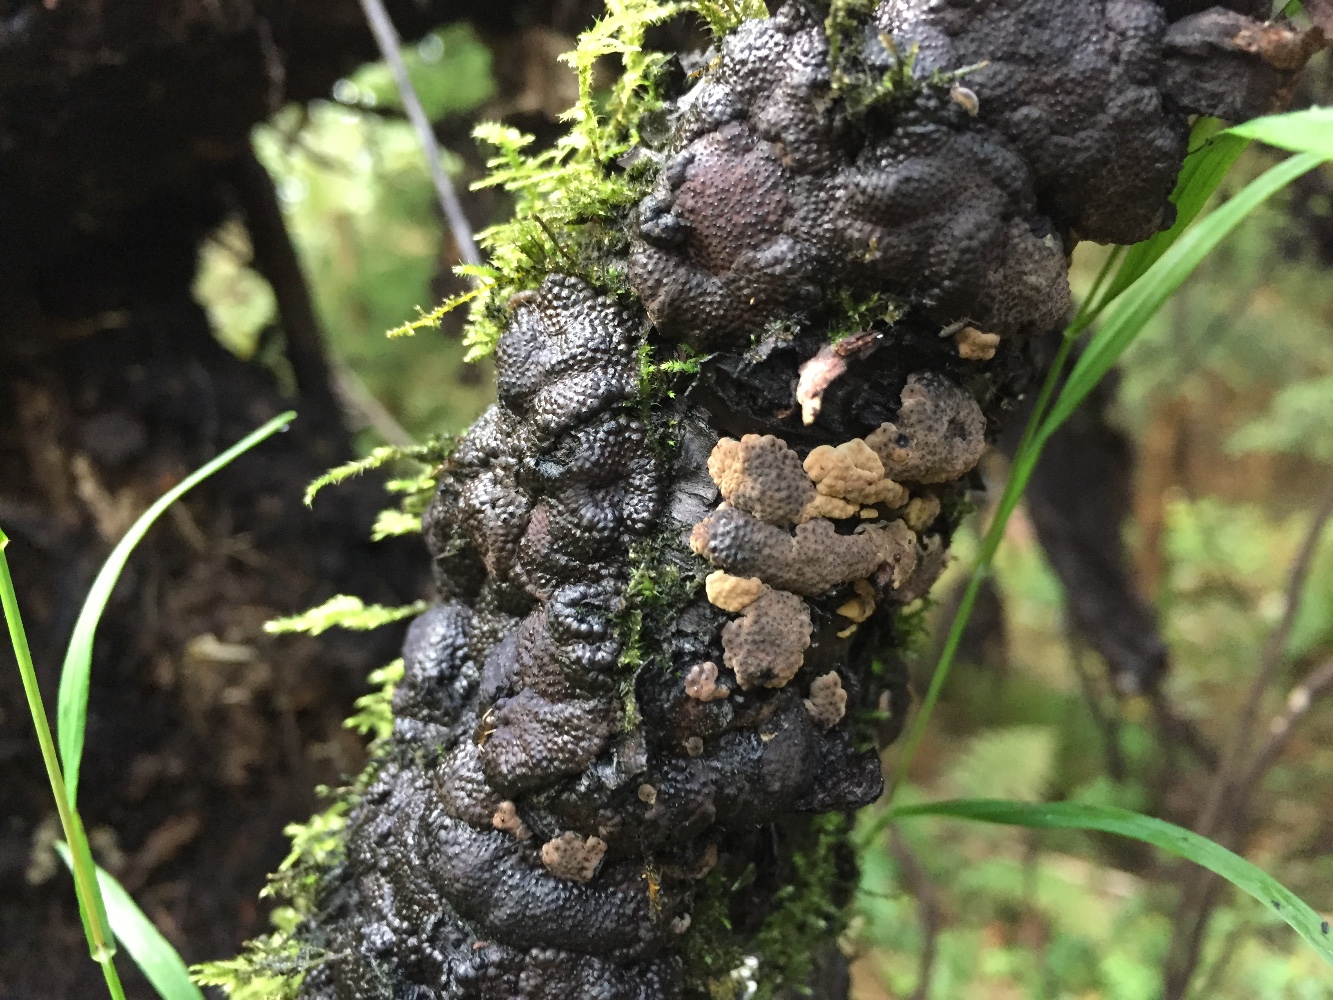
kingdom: Fungi
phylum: Ascomycota
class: Sordariomycetes
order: Xylariales
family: Hypoxylaceae
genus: Jackrogersella
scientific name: Jackrogersella multiformis
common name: foranderlig kulbær
